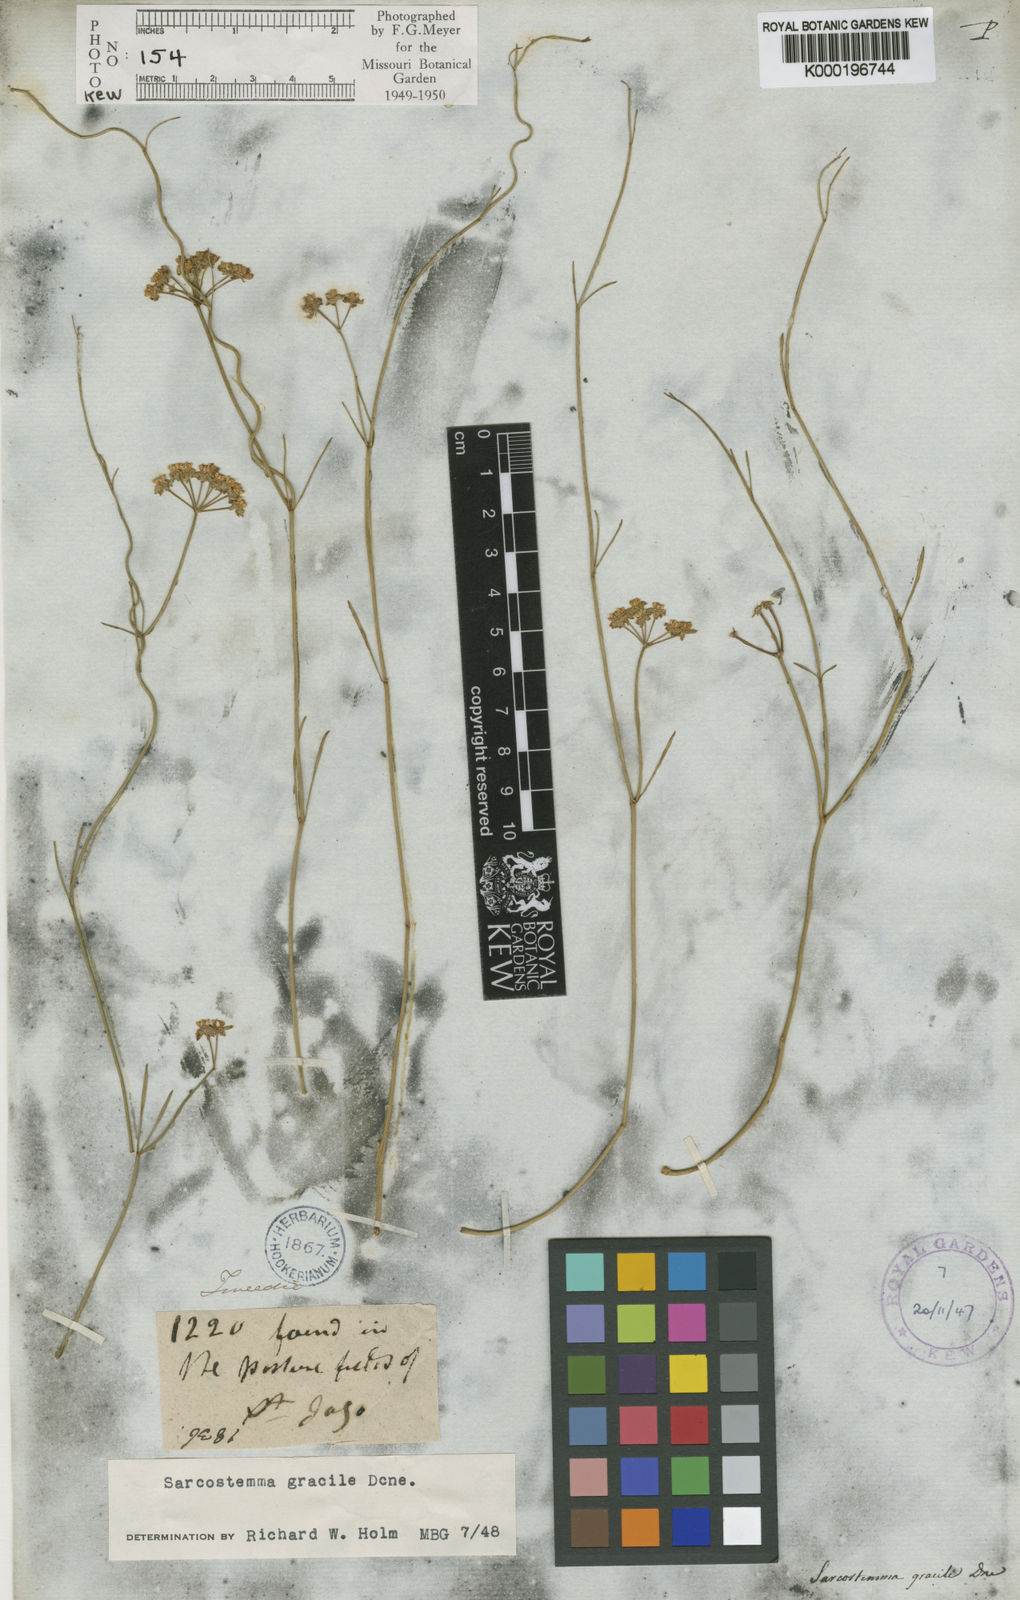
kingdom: Plantae
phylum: Tracheophyta
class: Magnoliopsida
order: Gentianales
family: Apocynaceae
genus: Funastrum
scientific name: Funastrum gracile
